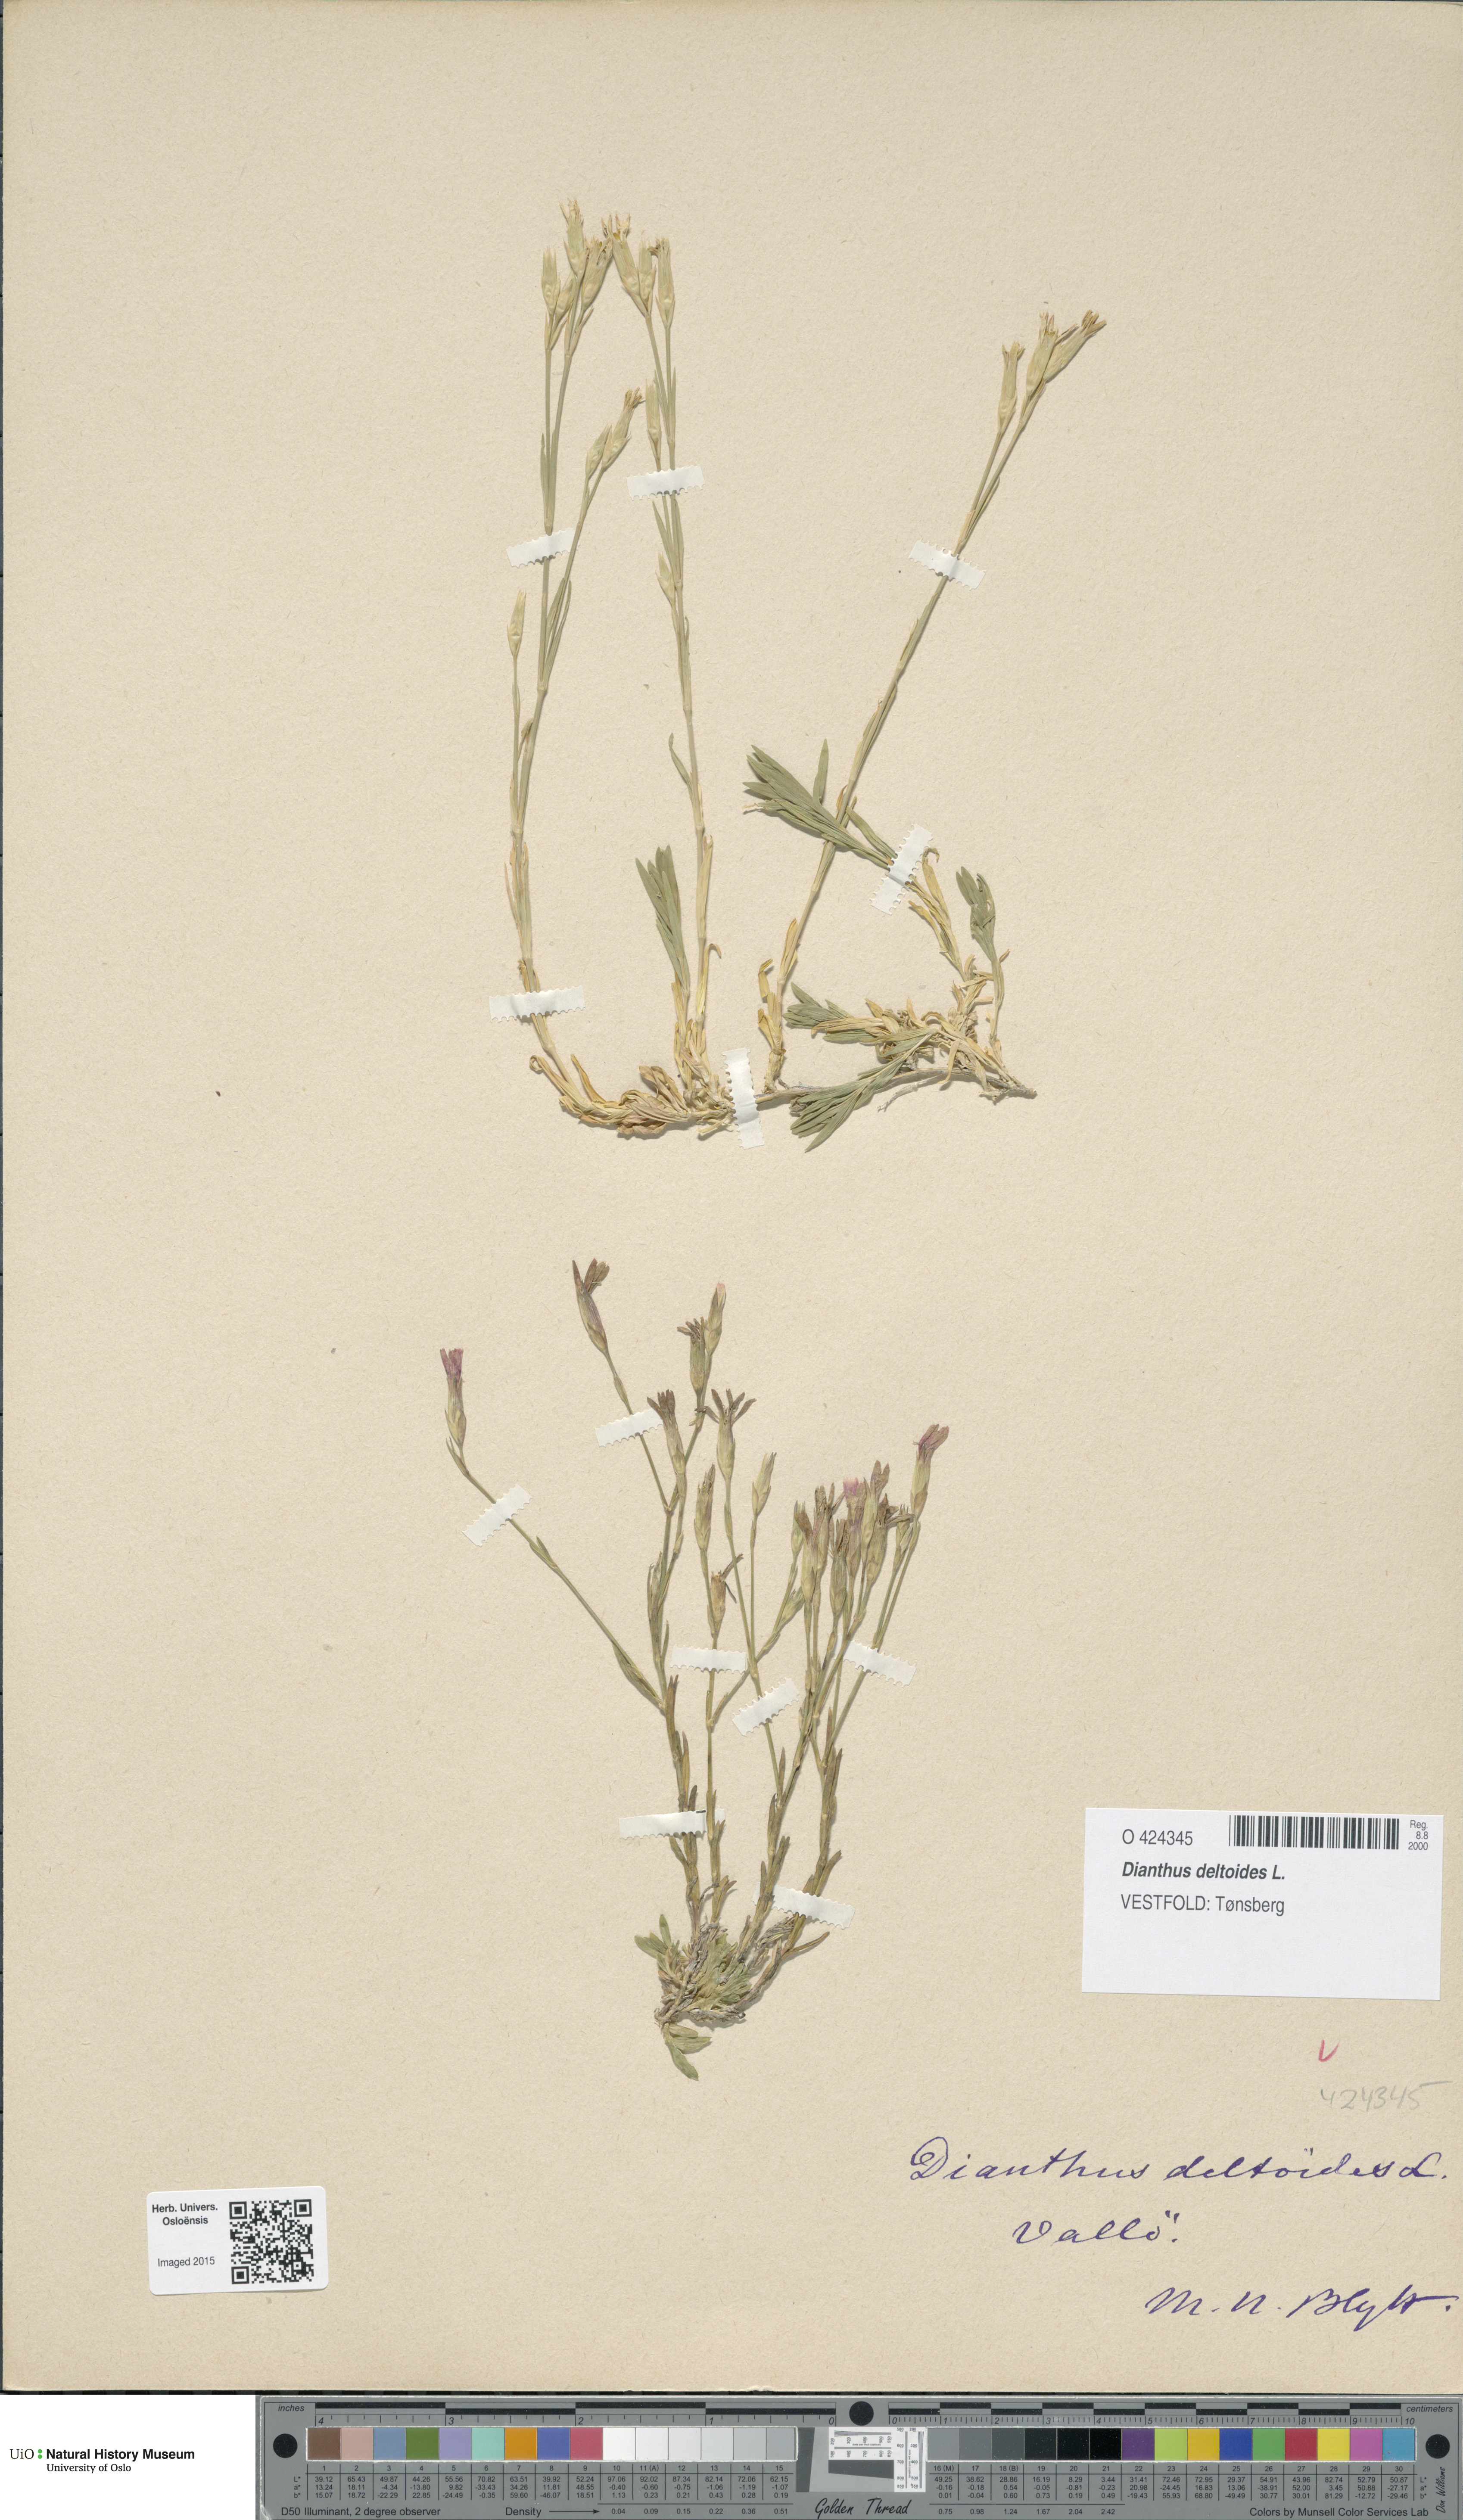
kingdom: Plantae
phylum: Tracheophyta
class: Magnoliopsida
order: Caryophyllales
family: Caryophyllaceae
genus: Dianthus
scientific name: Dianthus deltoides
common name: Maiden pink
